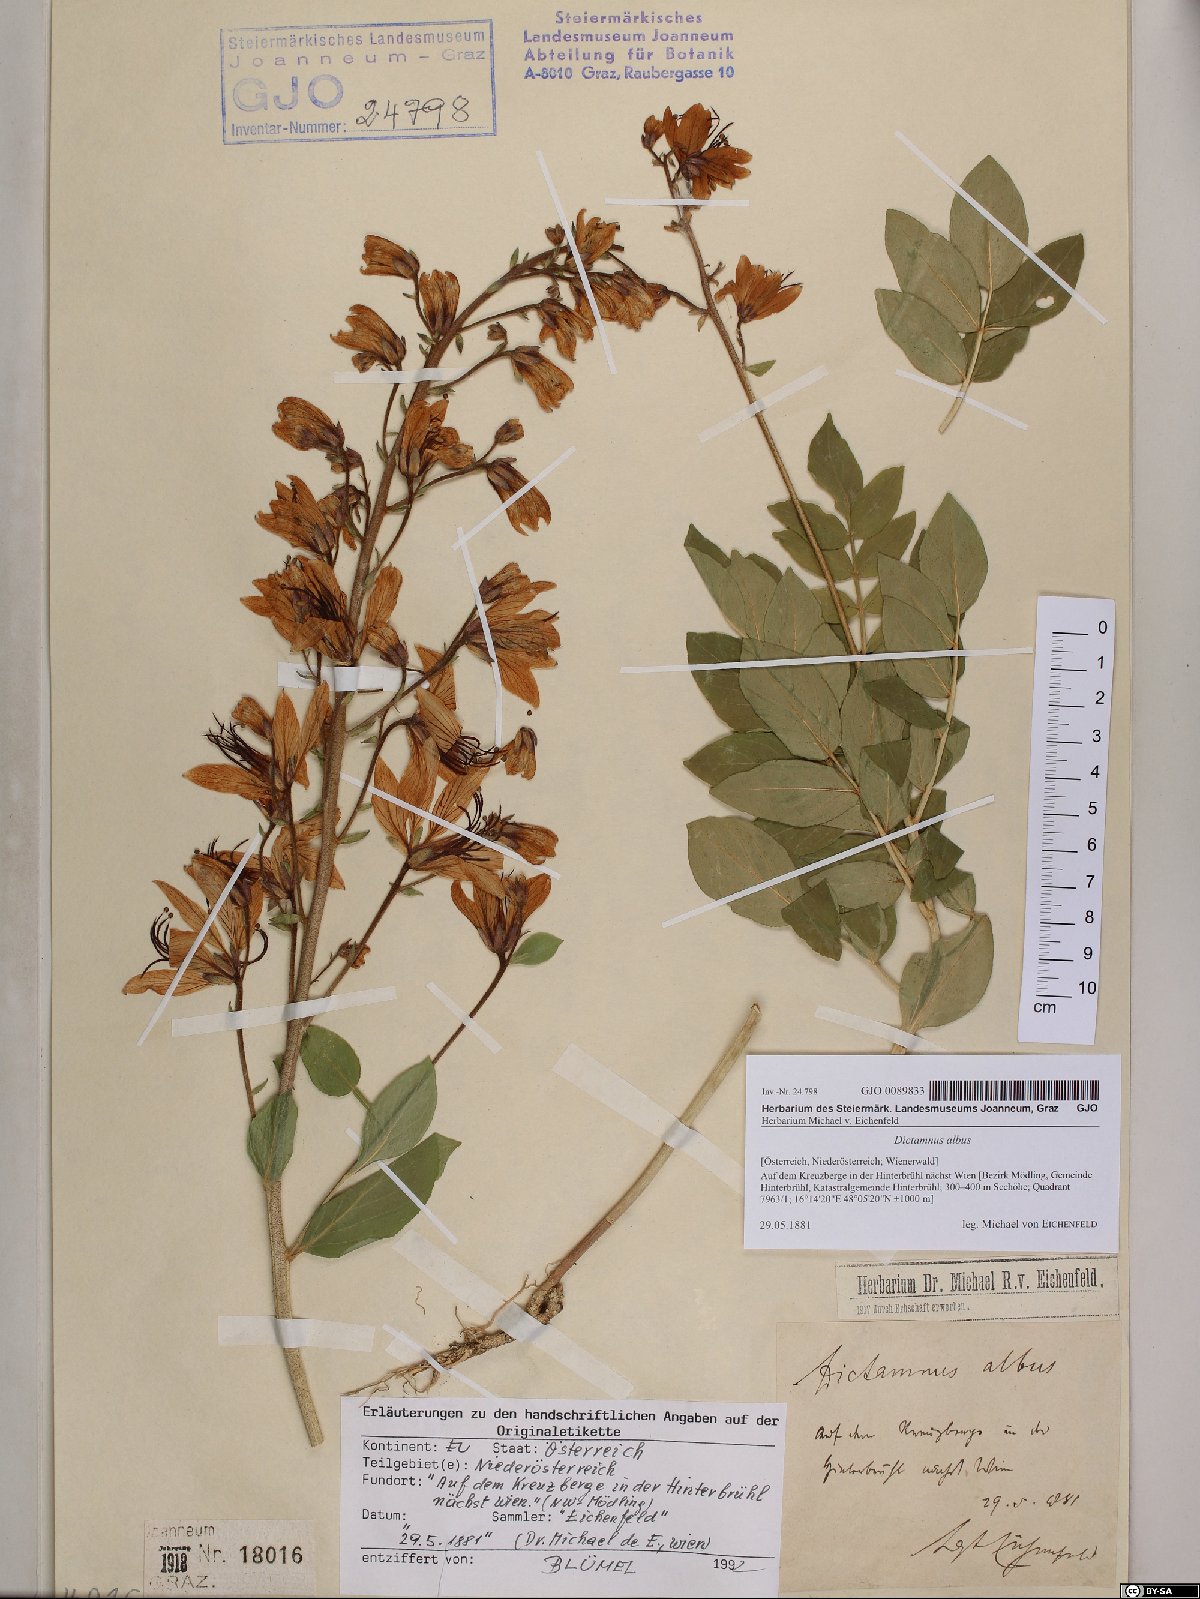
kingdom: Plantae
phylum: Tracheophyta
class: Magnoliopsida
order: Sapindales
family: Rutaceae
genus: Dictamnus
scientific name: Dictamnus albus
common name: Gasplant
